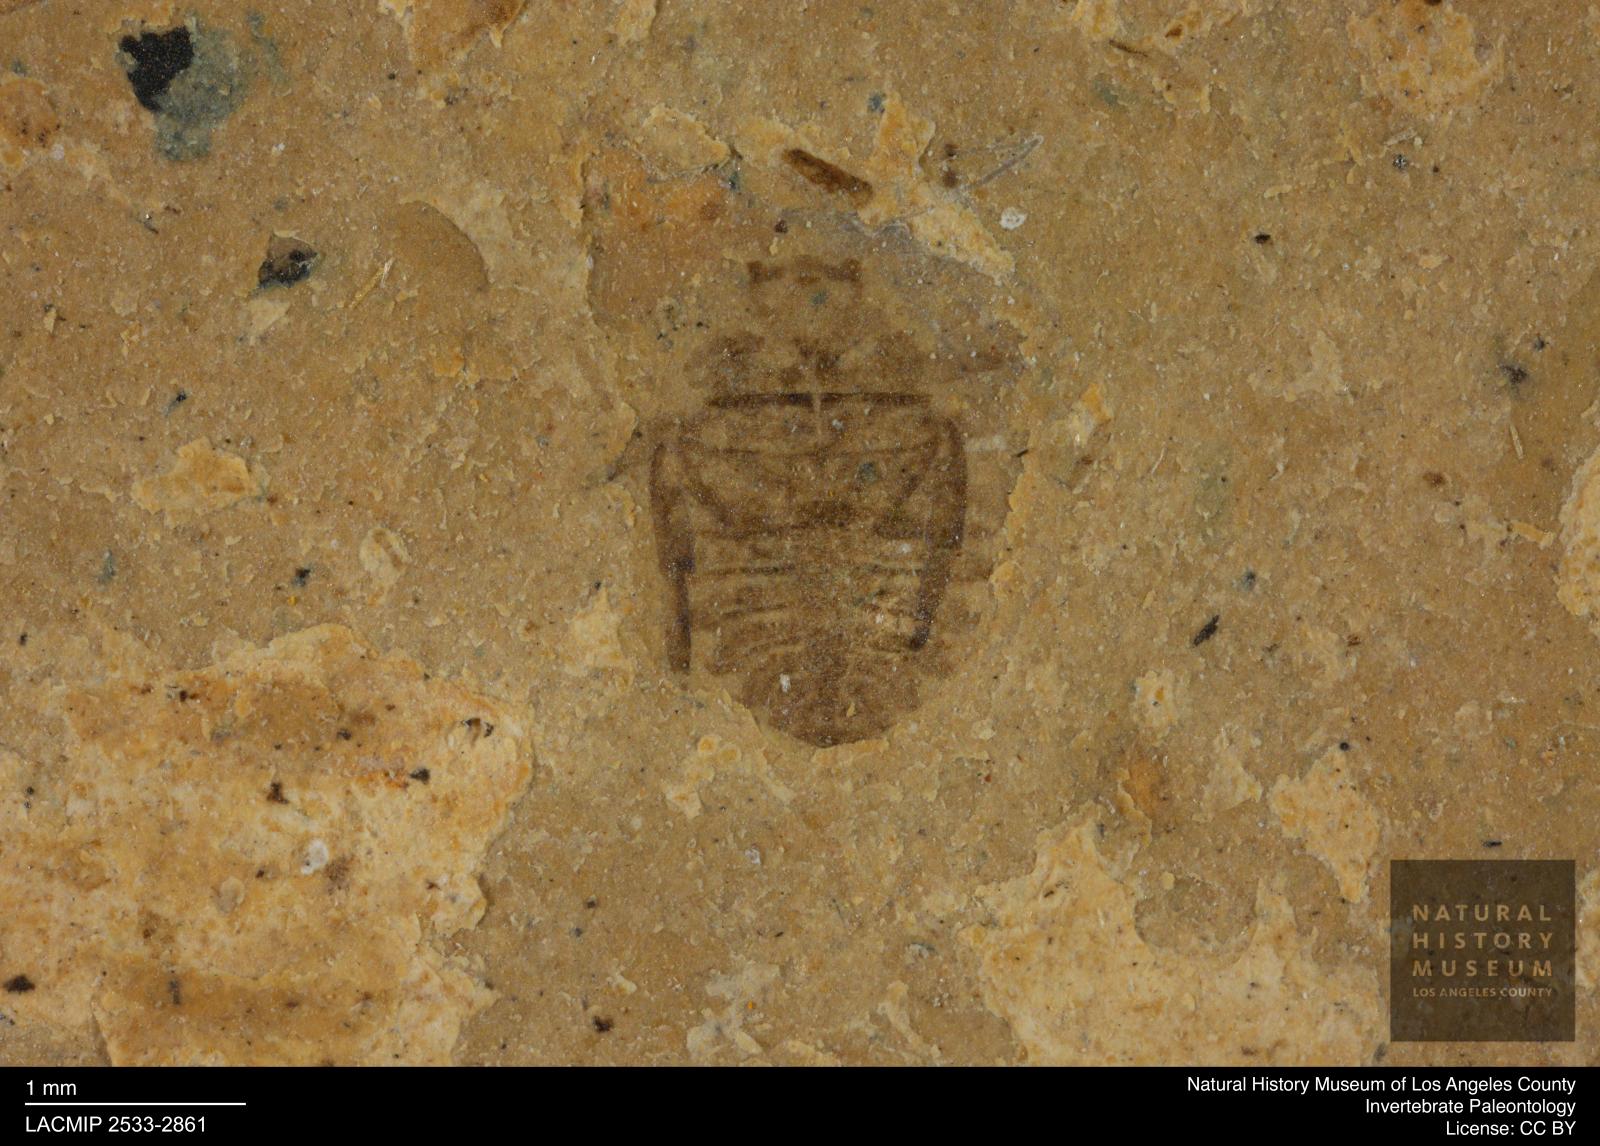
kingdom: Animalia
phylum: Arthropoda
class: Insecta
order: Hemiptera
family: Naucoridae
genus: Naucoris
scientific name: Naucoris rottensis
